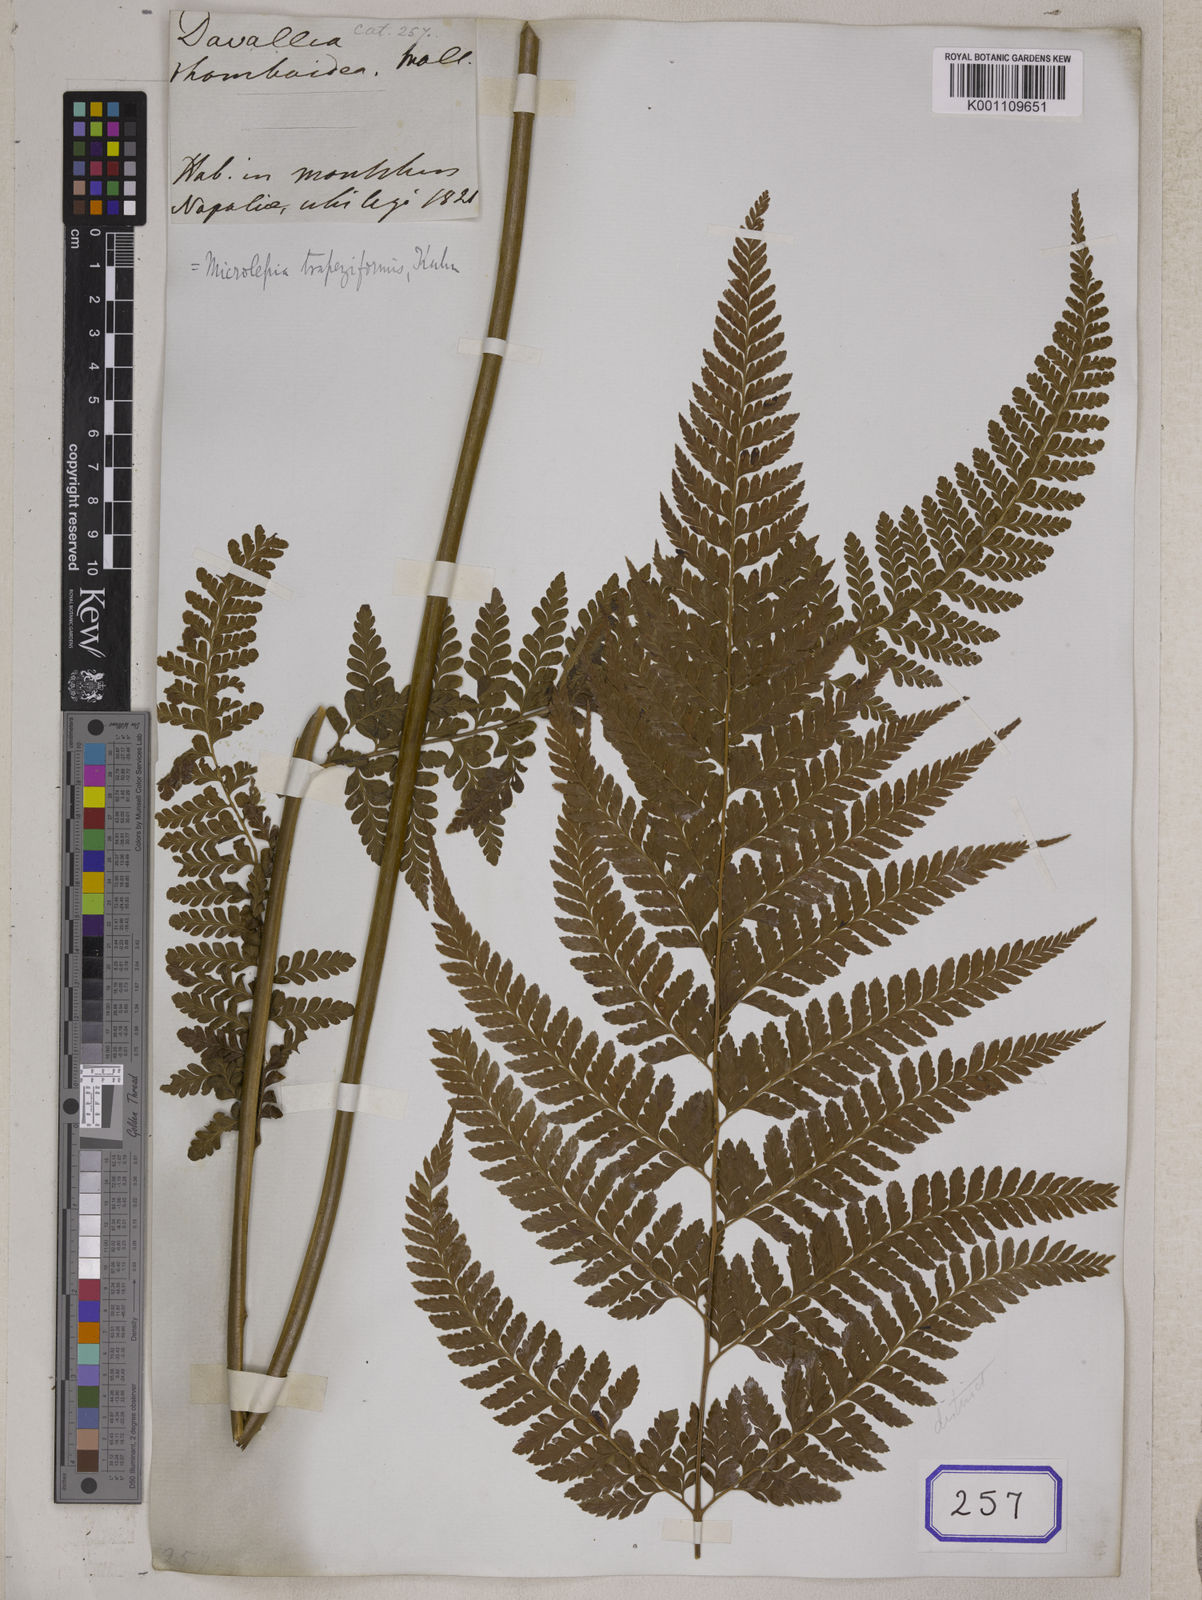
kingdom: Plantae
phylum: Tracheophyta
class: Polypodiopsida
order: Polypodiales
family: Dennstaedtiaceae
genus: Microlepia
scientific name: Microlepia rhomboidea
